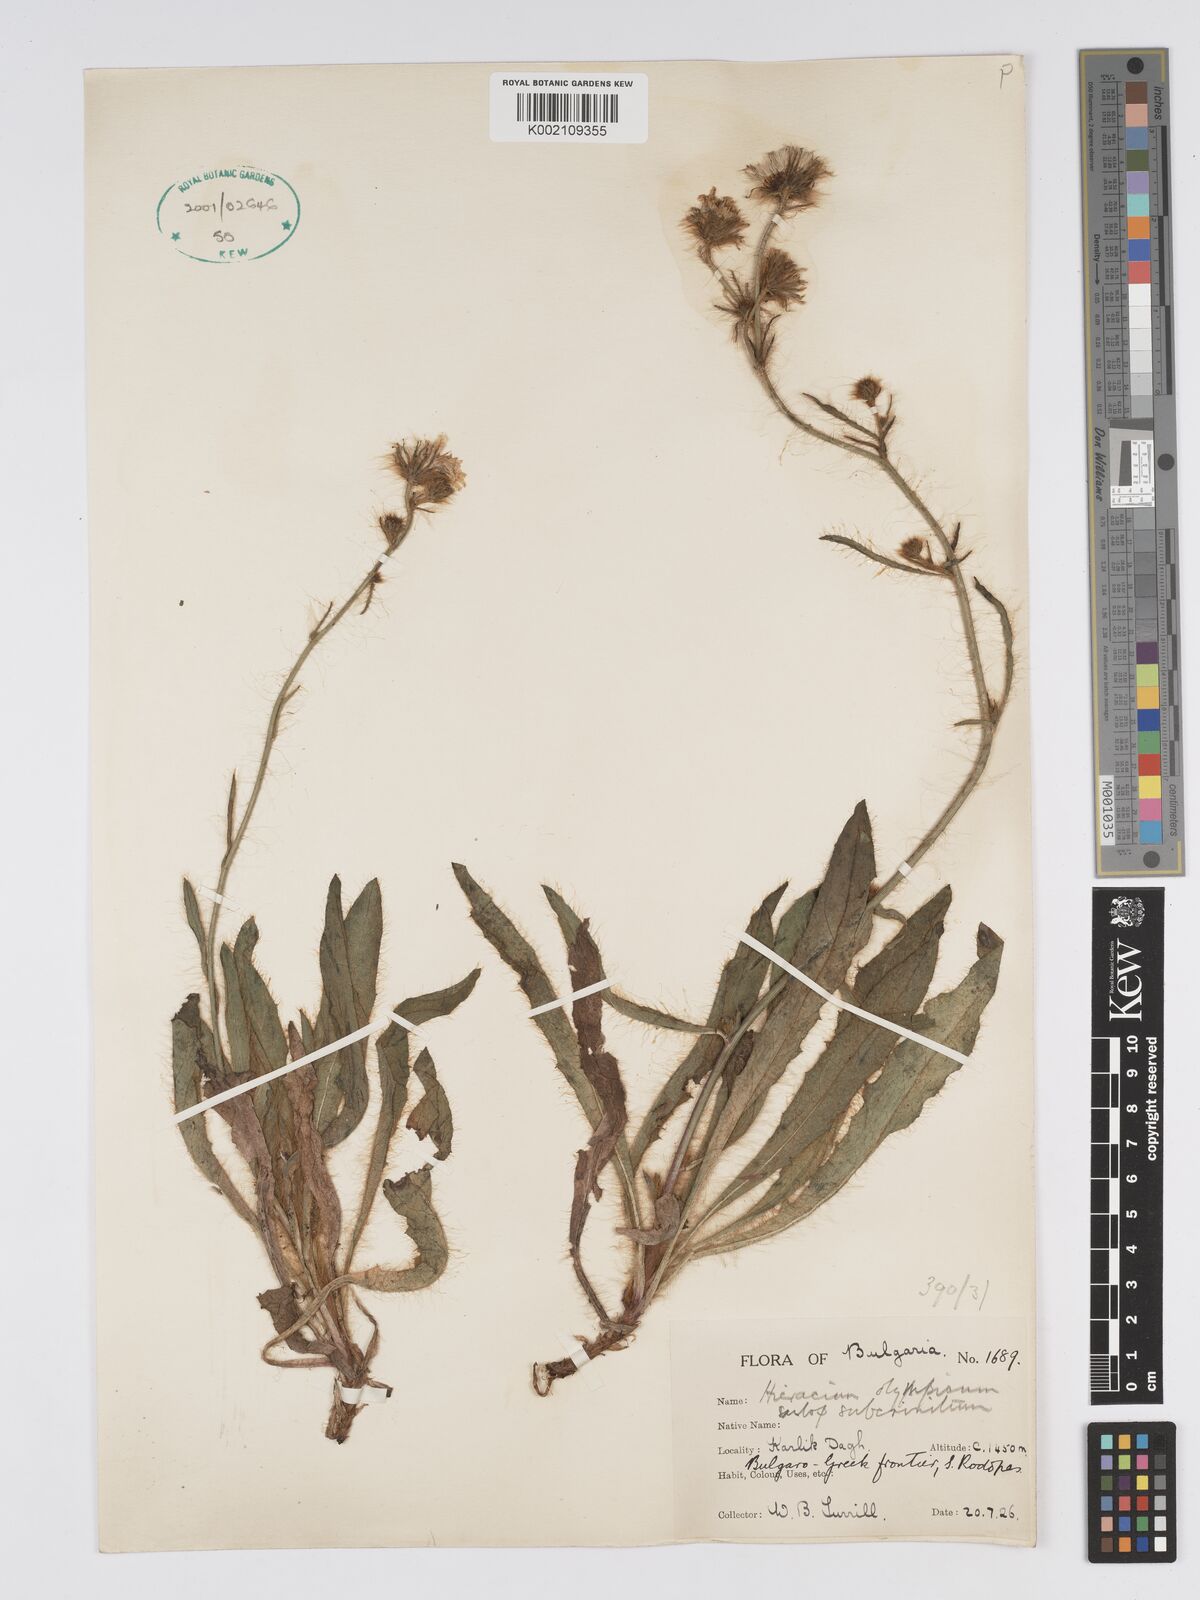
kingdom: Plantae
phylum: Tracheophyta
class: Magnoliopsida
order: Asterales
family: Asteraceae
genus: Hieracium
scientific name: Hieracium olympicum
